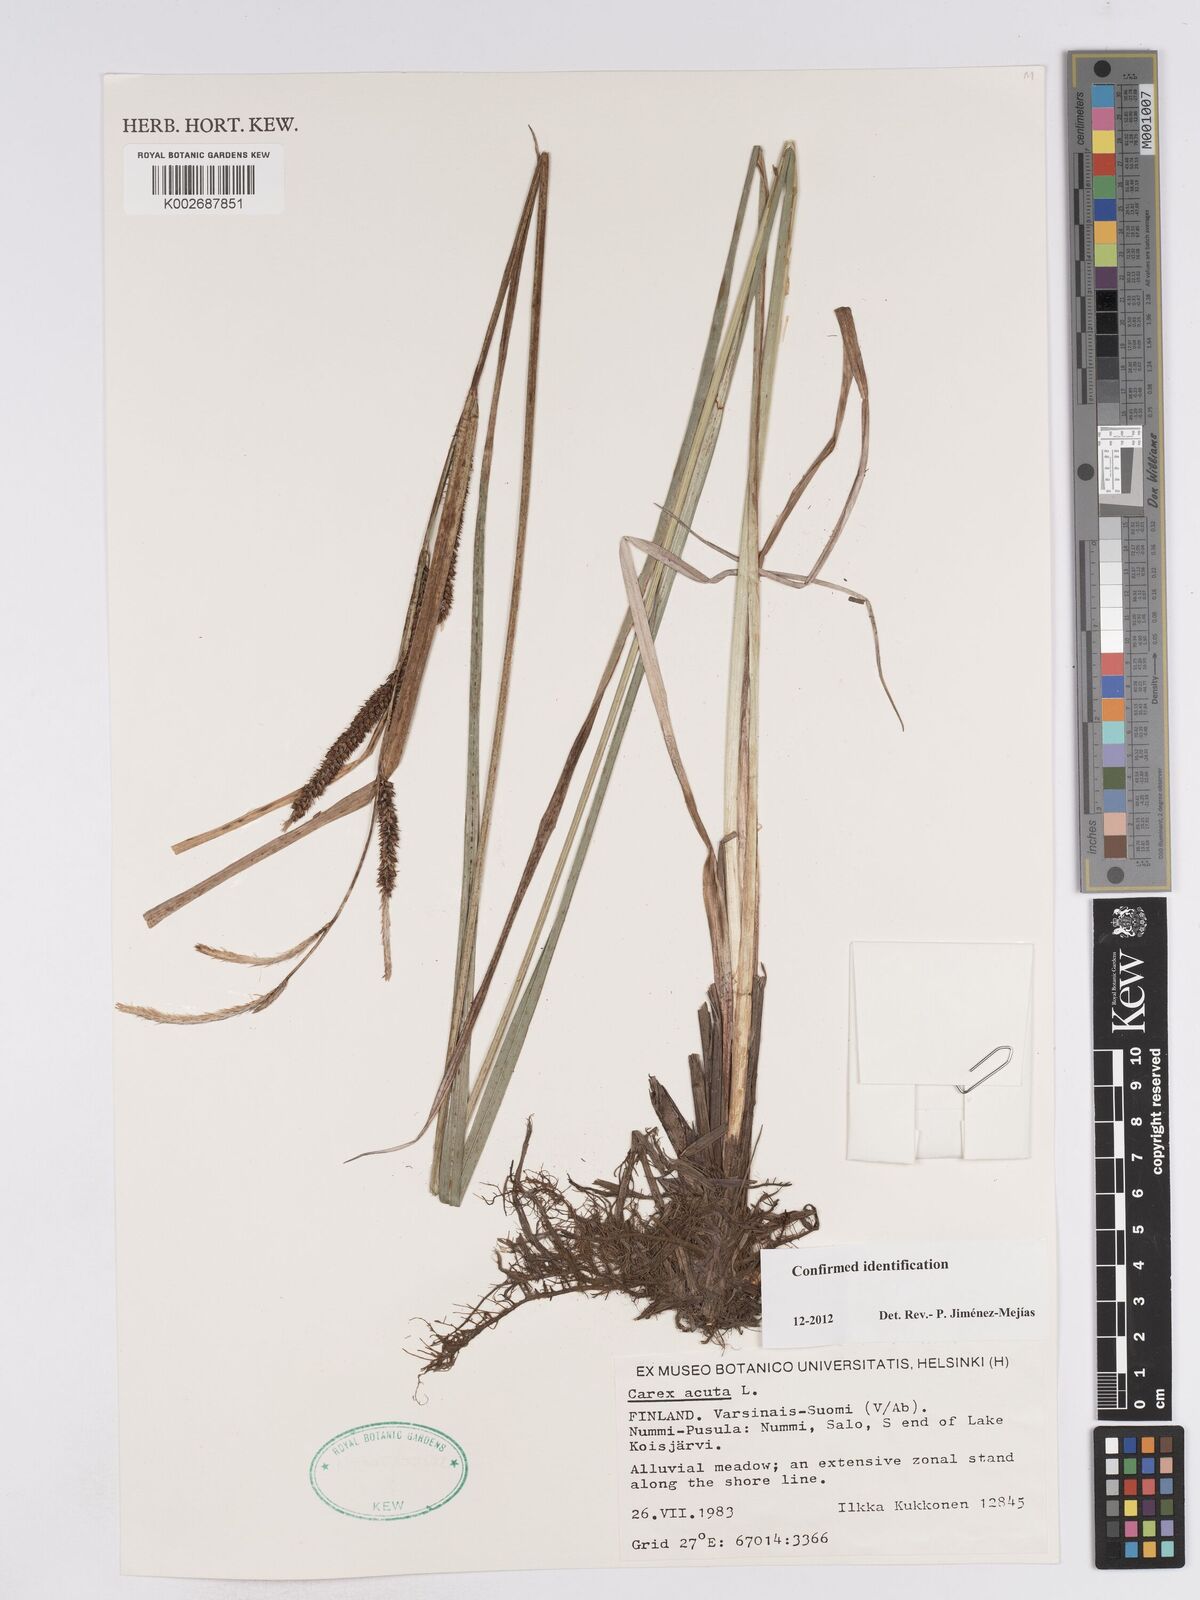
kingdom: Plantae
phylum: Tracheophyta
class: Liliopsida
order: Poales
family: Cyperaceae
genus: Carex
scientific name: Carex acuta
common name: Slender tufted-sedge
